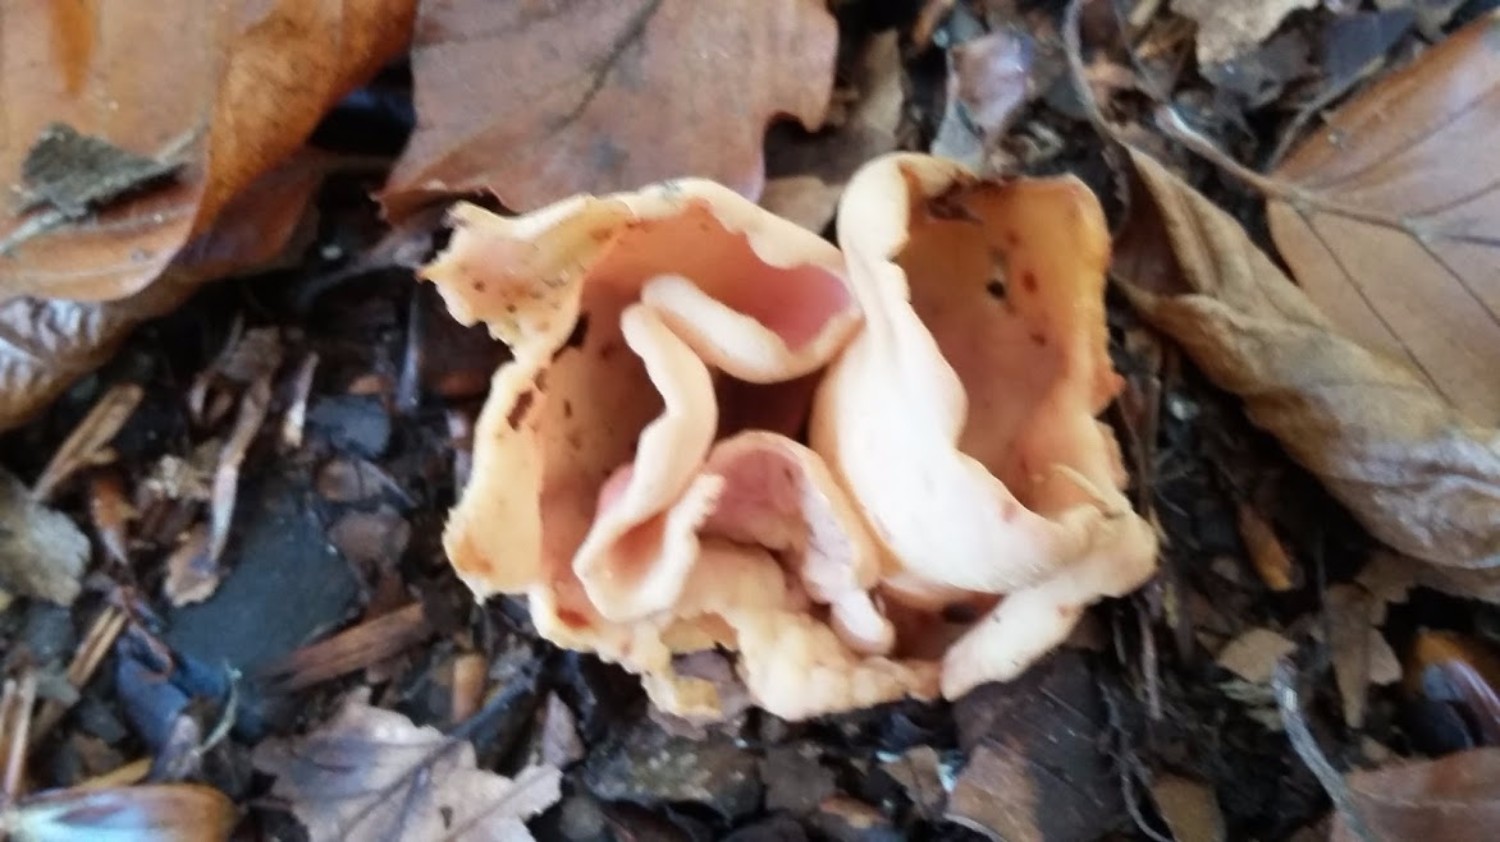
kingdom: Fungi
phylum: Ascomycota
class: Pezizomycetes
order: Pezizales
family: Otideaceae
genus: Otidea
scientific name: Otidea onotica
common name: æsel-ørebæger
